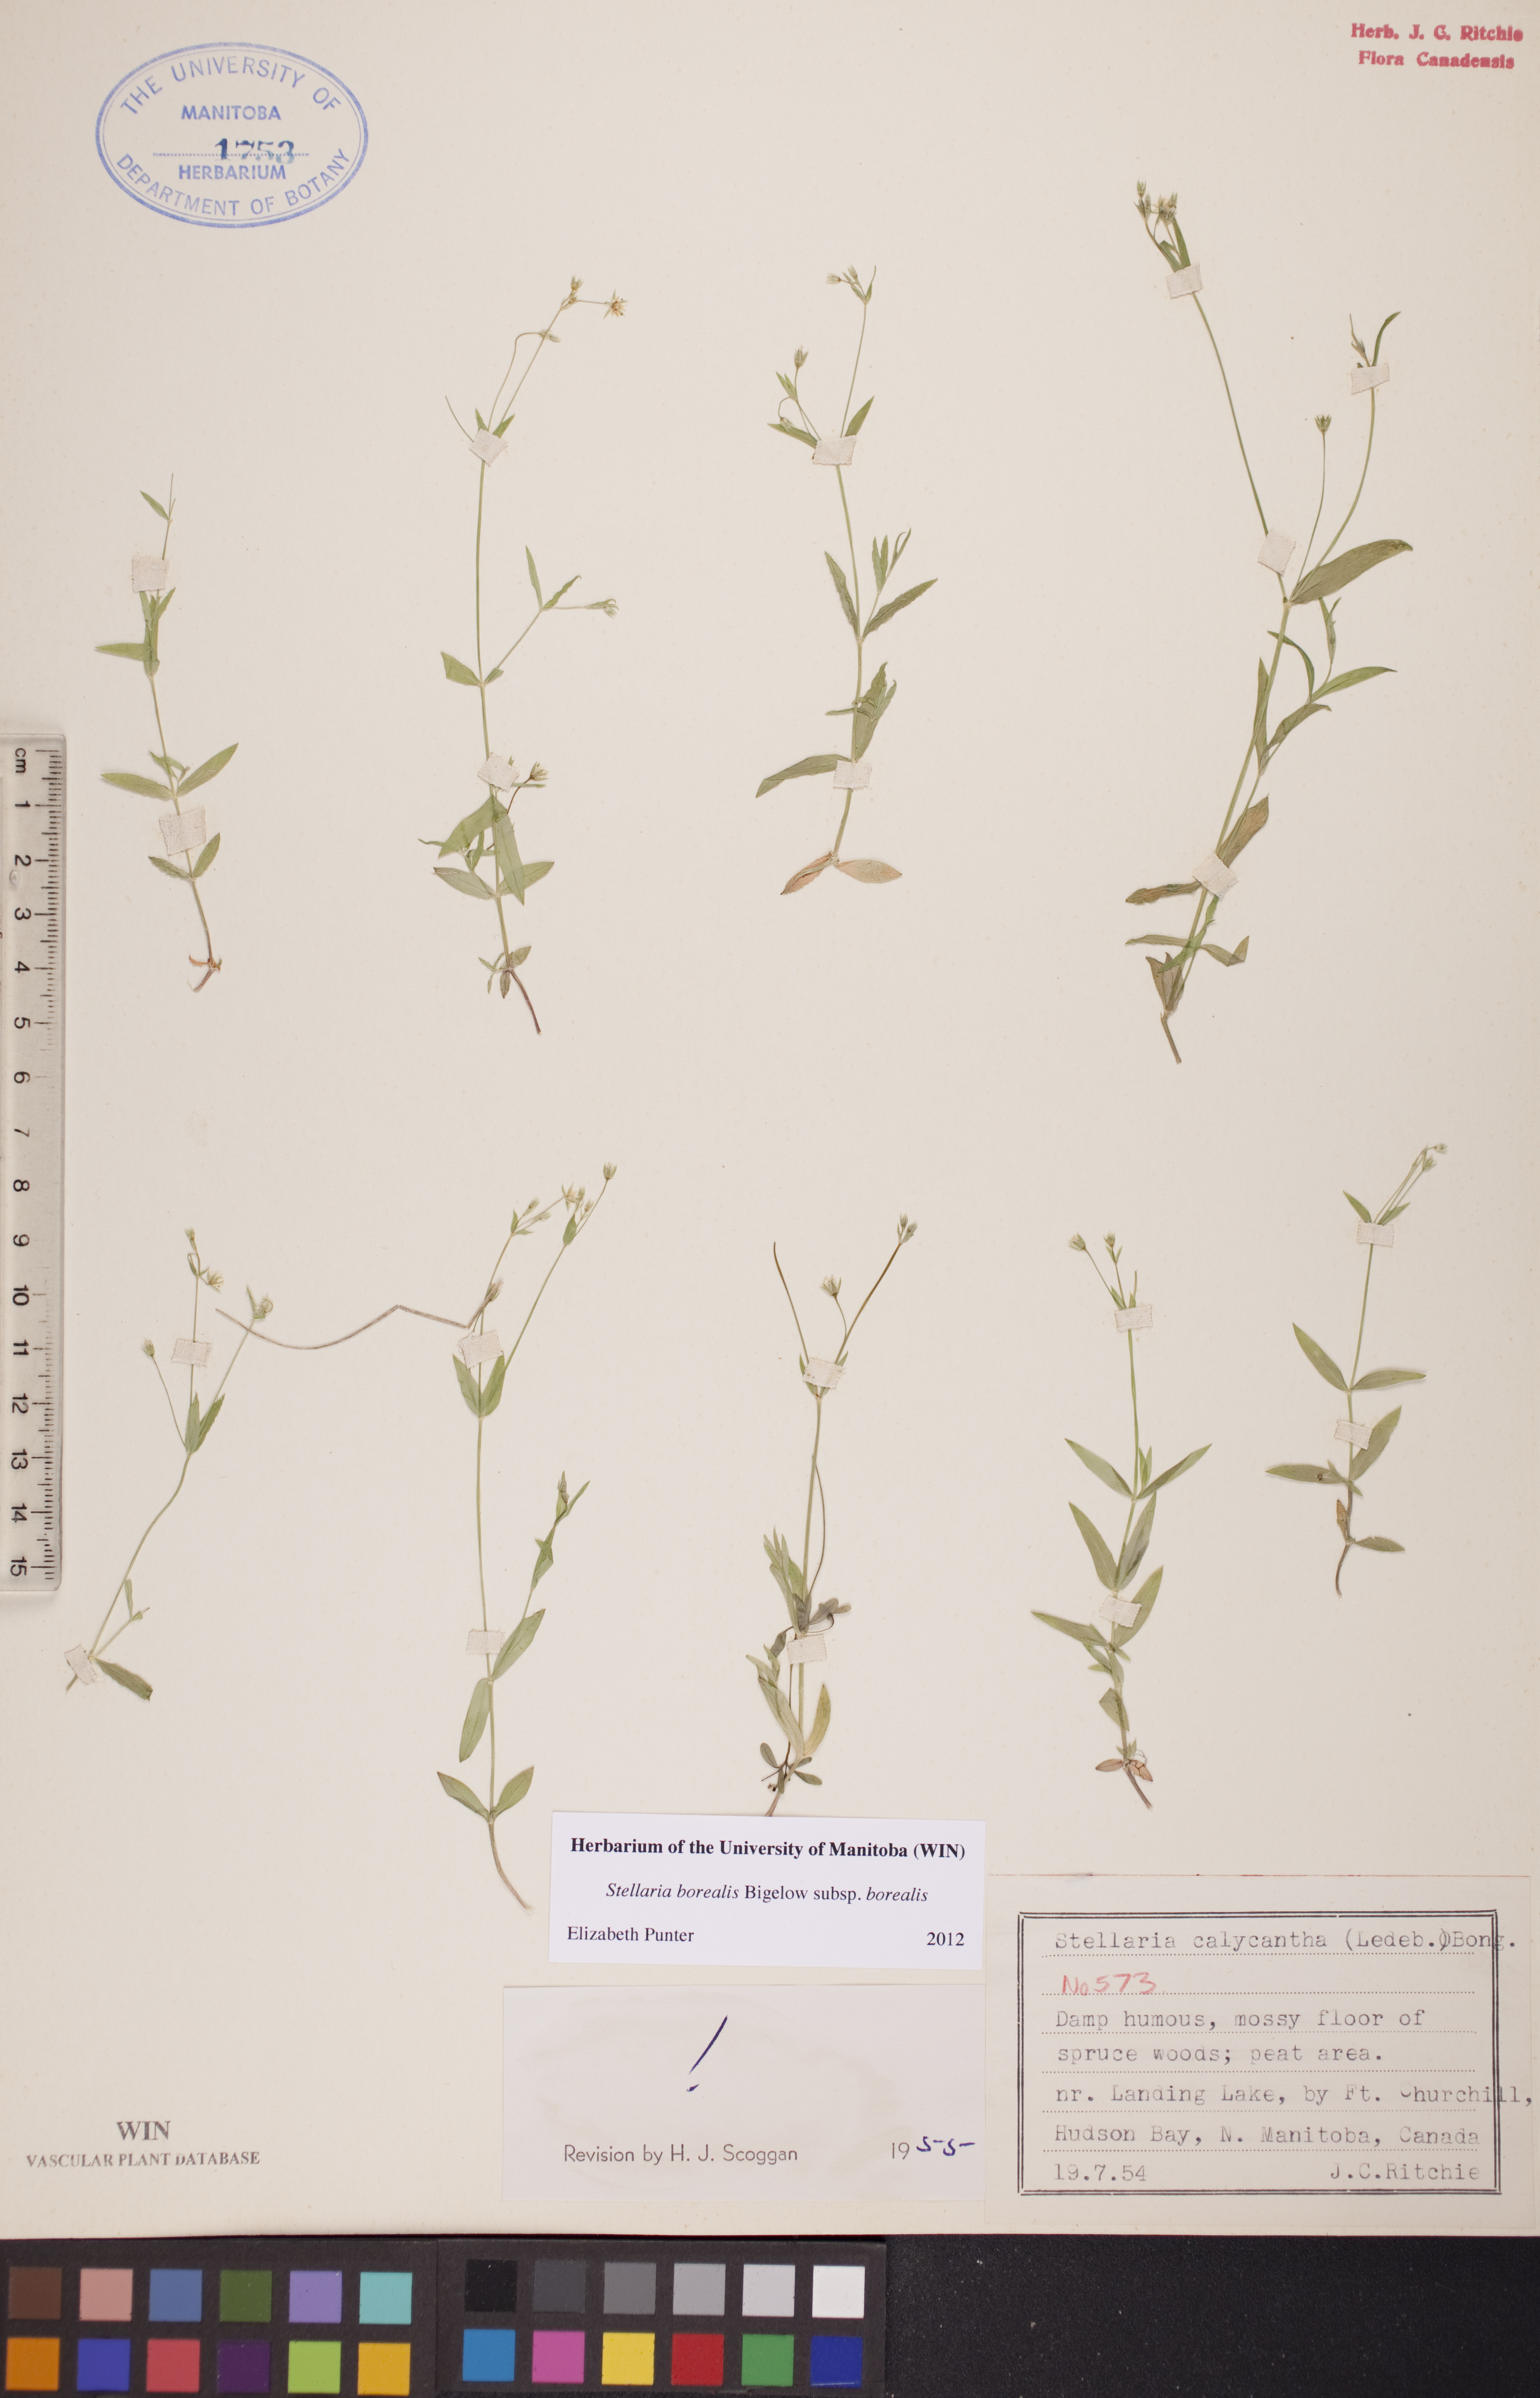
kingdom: Plantae
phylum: Tracheophyta
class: Magnoliopsida
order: Caryophyllales
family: Caryophyllaceae
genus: Stellaria
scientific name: Stellaria borealis
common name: Boreal starwort
